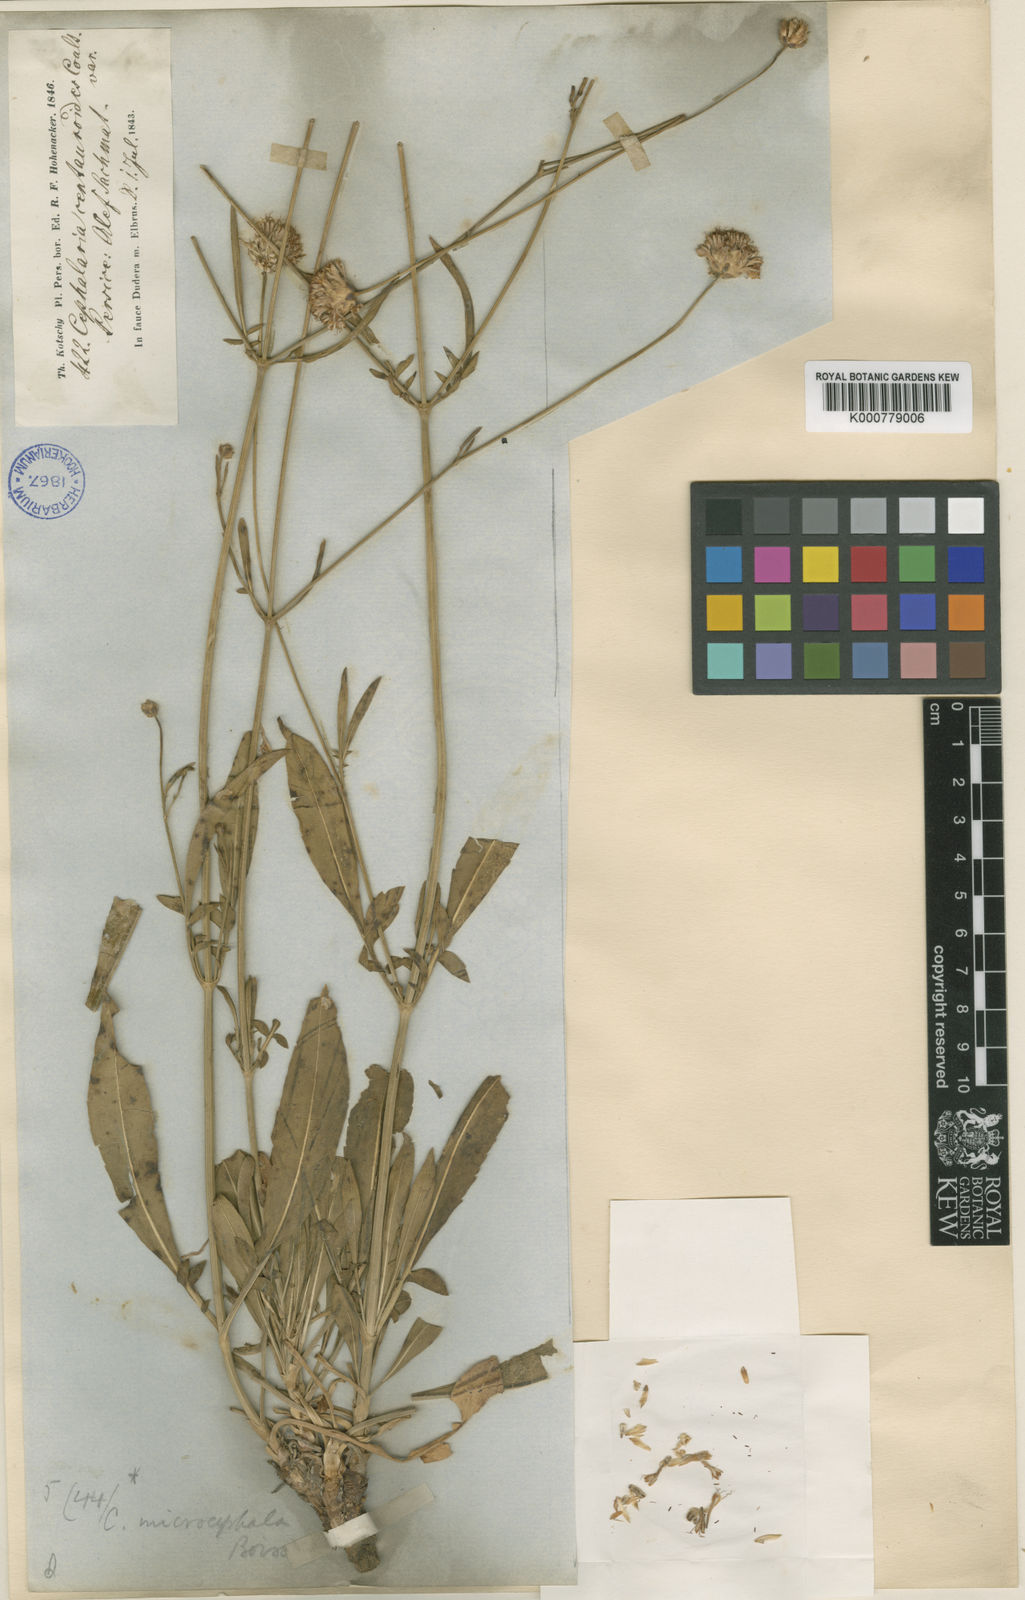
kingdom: Plantae
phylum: Tracheophyta
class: Magnoliopsida
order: Dipsacales
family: Caprifoliaceae
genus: Cephalaria
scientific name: Cephalaria microcephala
